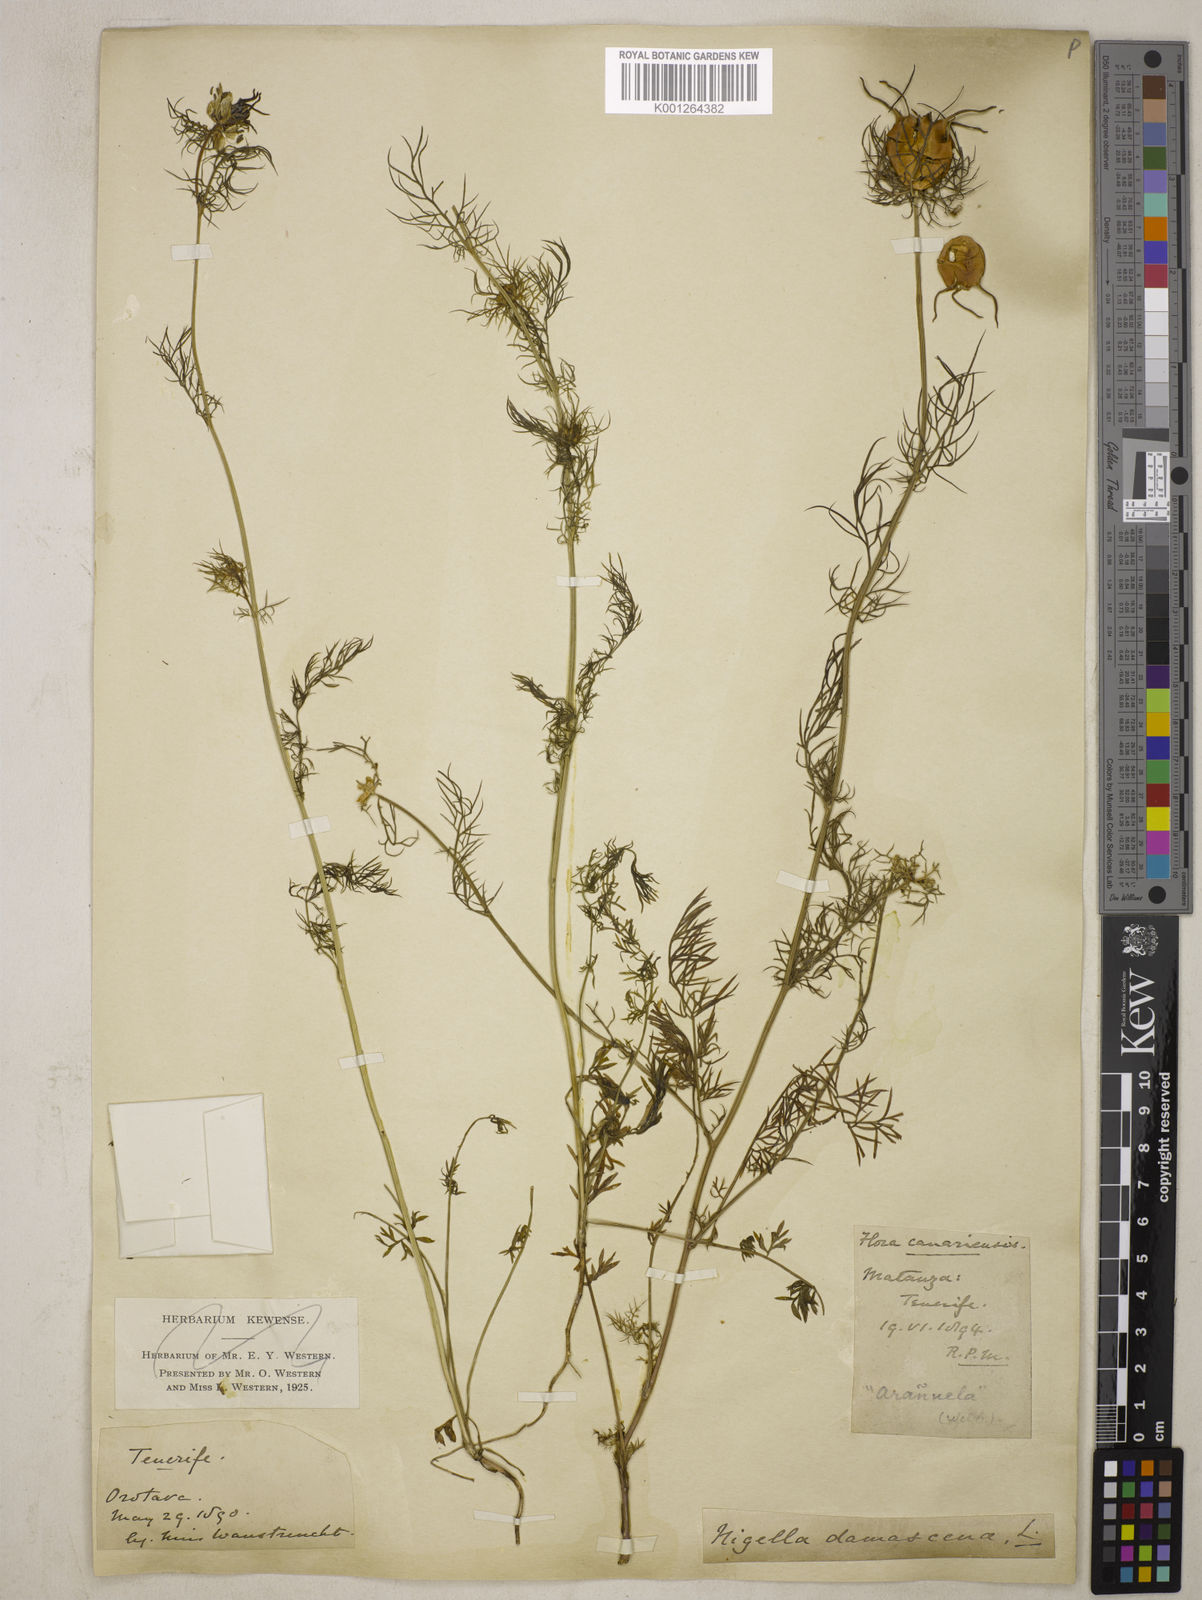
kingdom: Plantae
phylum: Tracheophyta
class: Magnoliopsida
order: Ranunculales
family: Ranunculaceae
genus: Nigella
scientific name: Nigella damascena
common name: Love-in-a-mist
